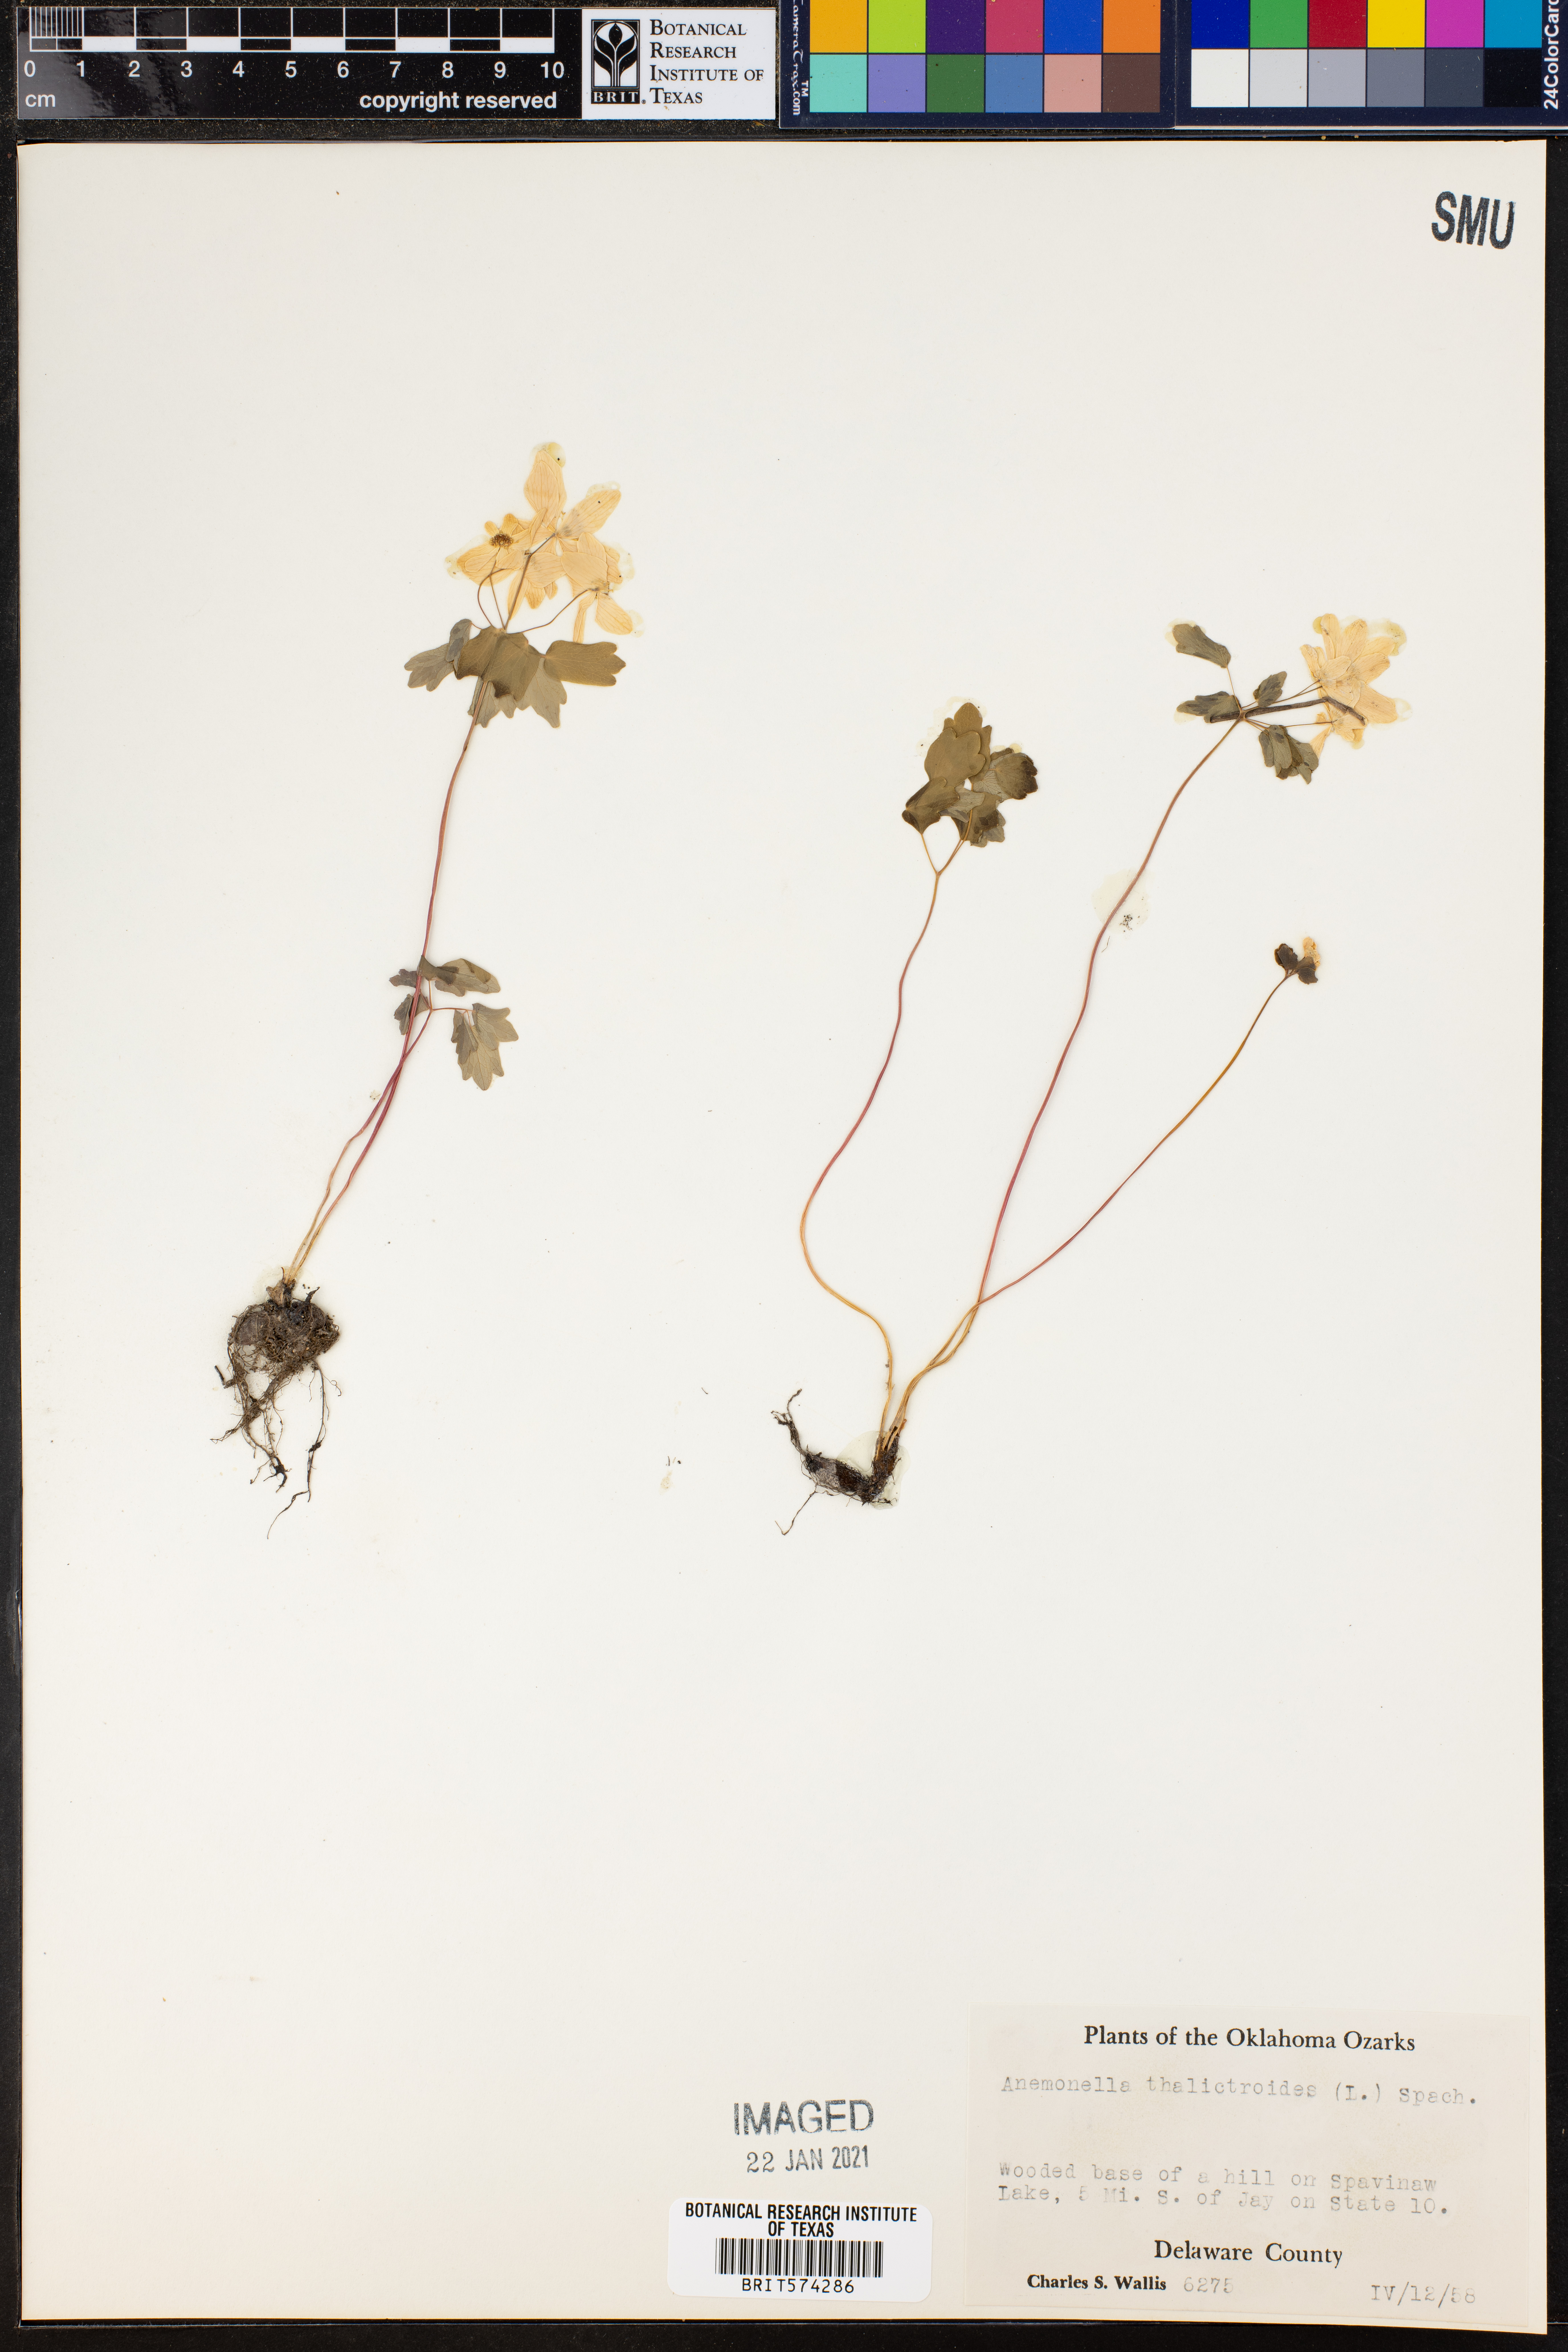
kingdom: Plantae
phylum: Tracheophyta
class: Magnoliopsida
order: Ranunculales
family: Ranunculaceae
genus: Thalictrum
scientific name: Thalictrum thalictroides
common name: Rue-anemone
